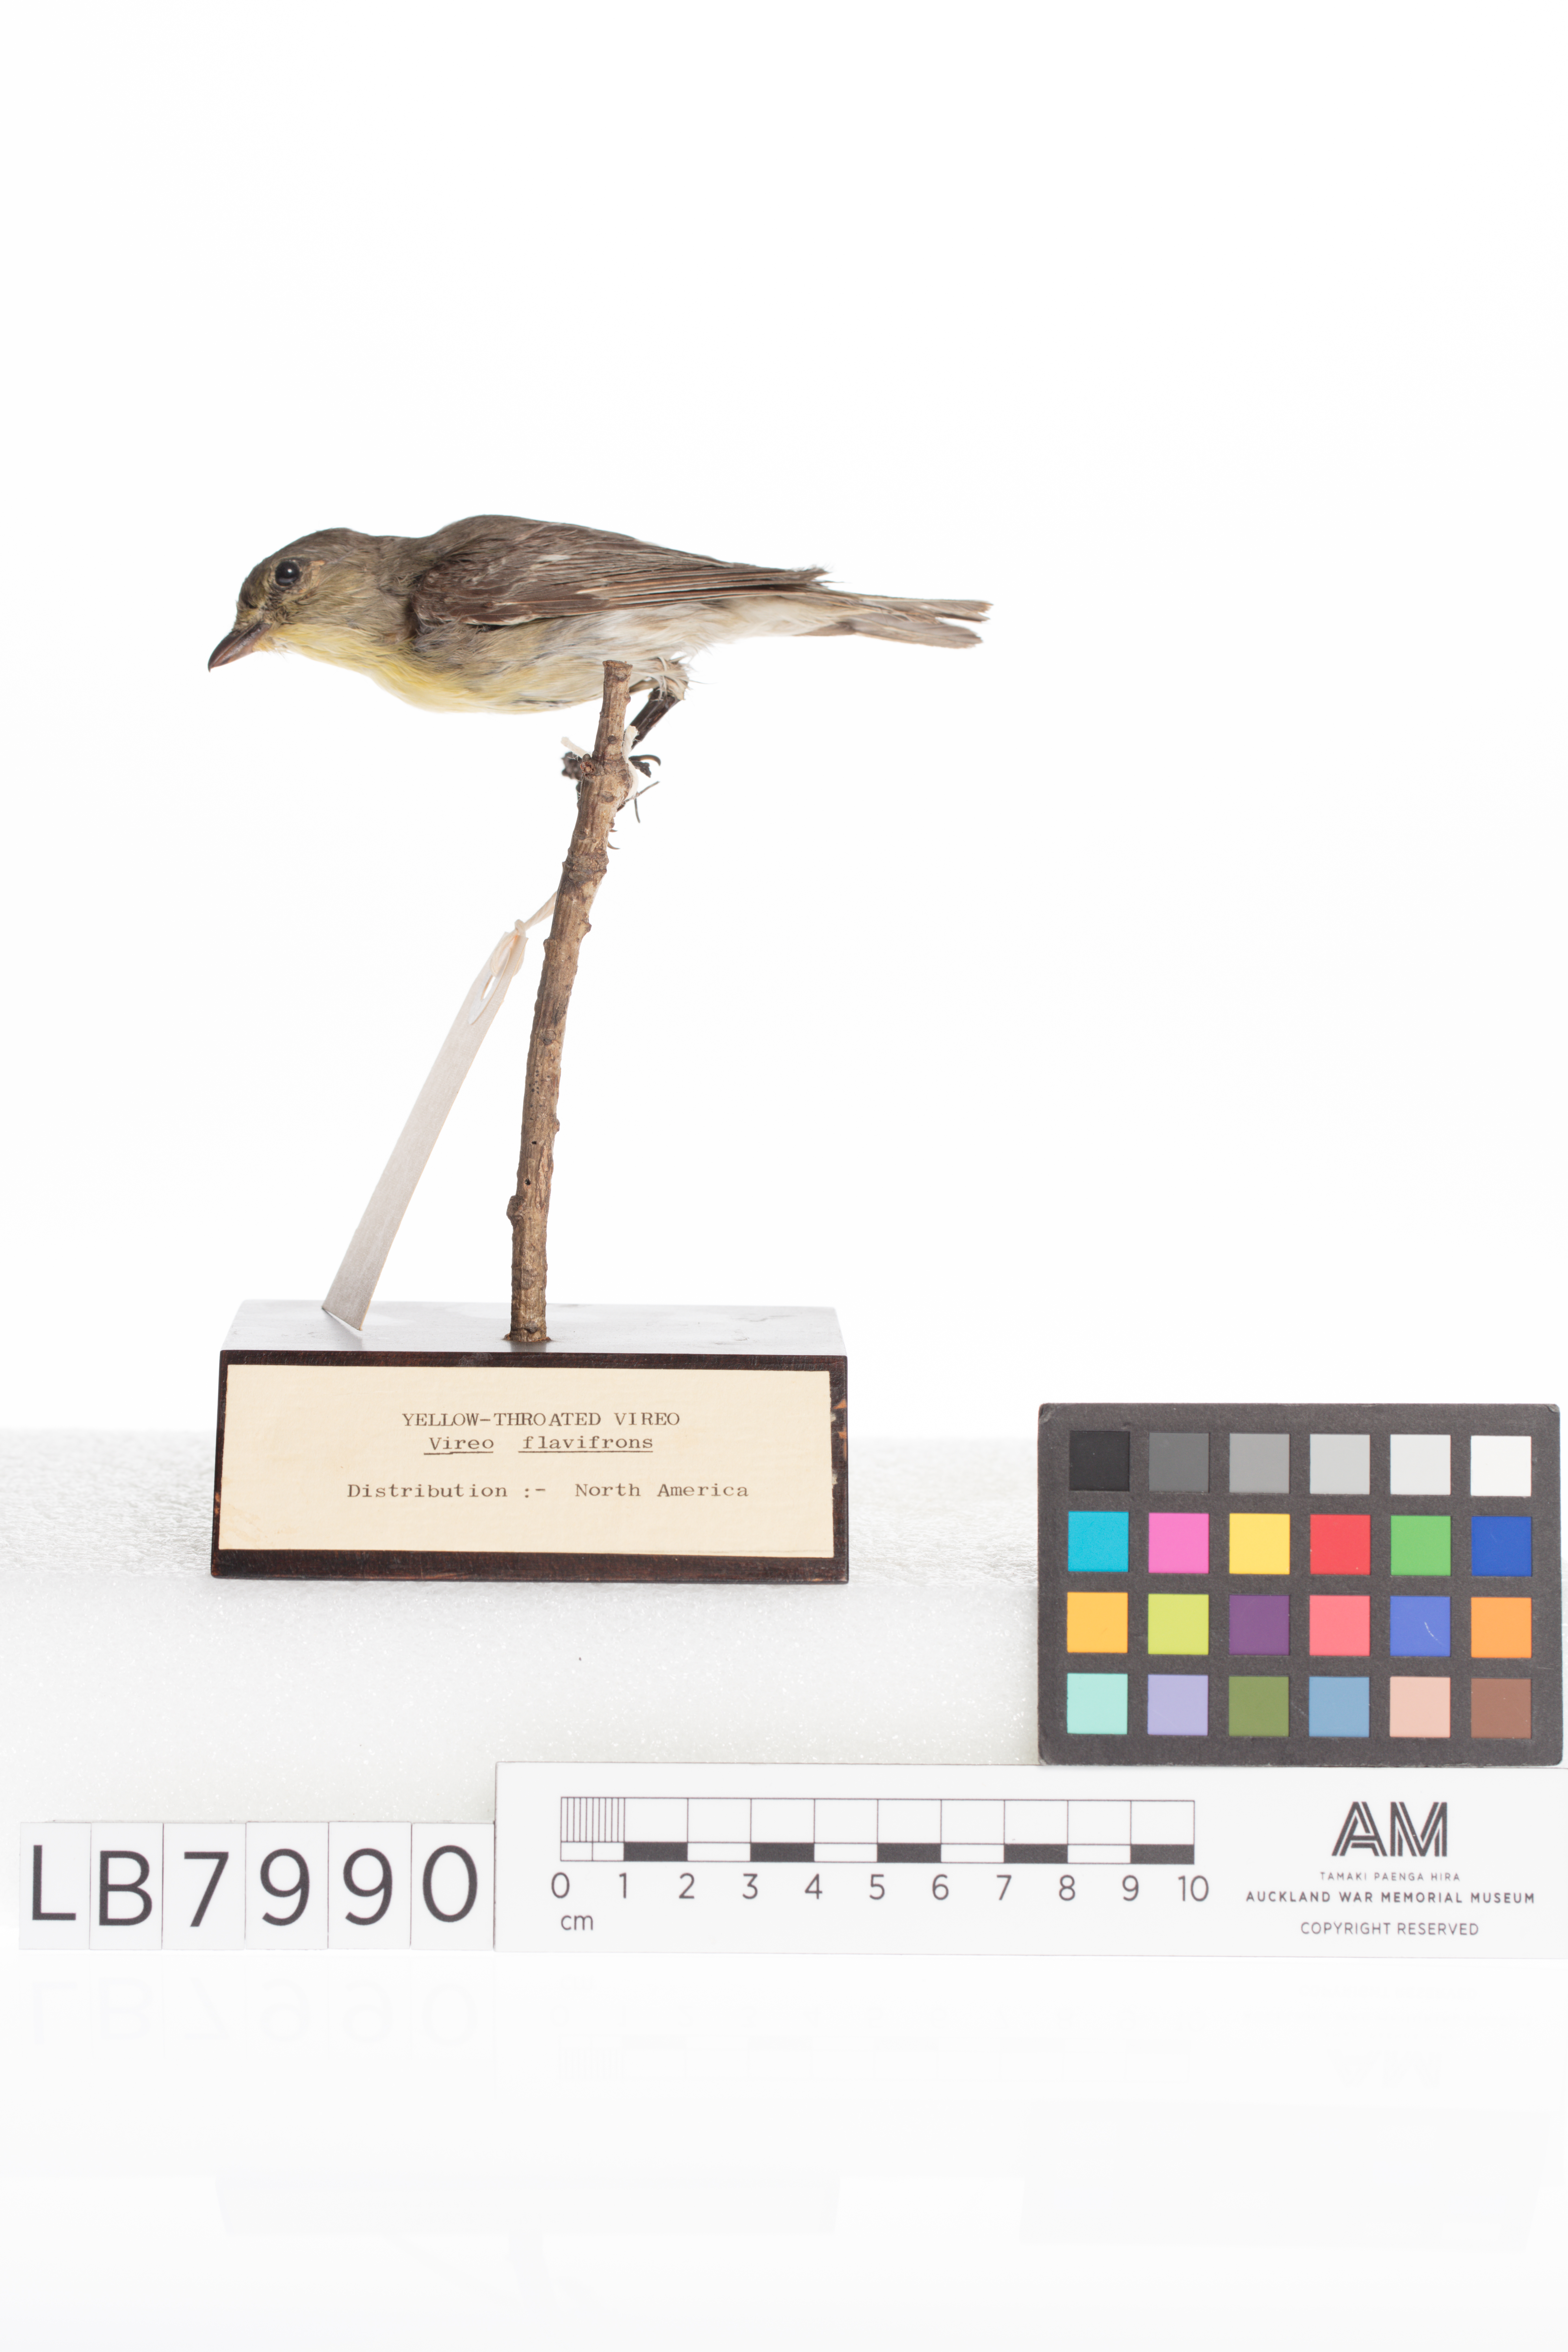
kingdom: Animalia
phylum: Chordata
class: Aves
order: Passeriformes
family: Vireonidae
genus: Vireo
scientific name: Vireo flavifrons
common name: Yellow-throated vireo
